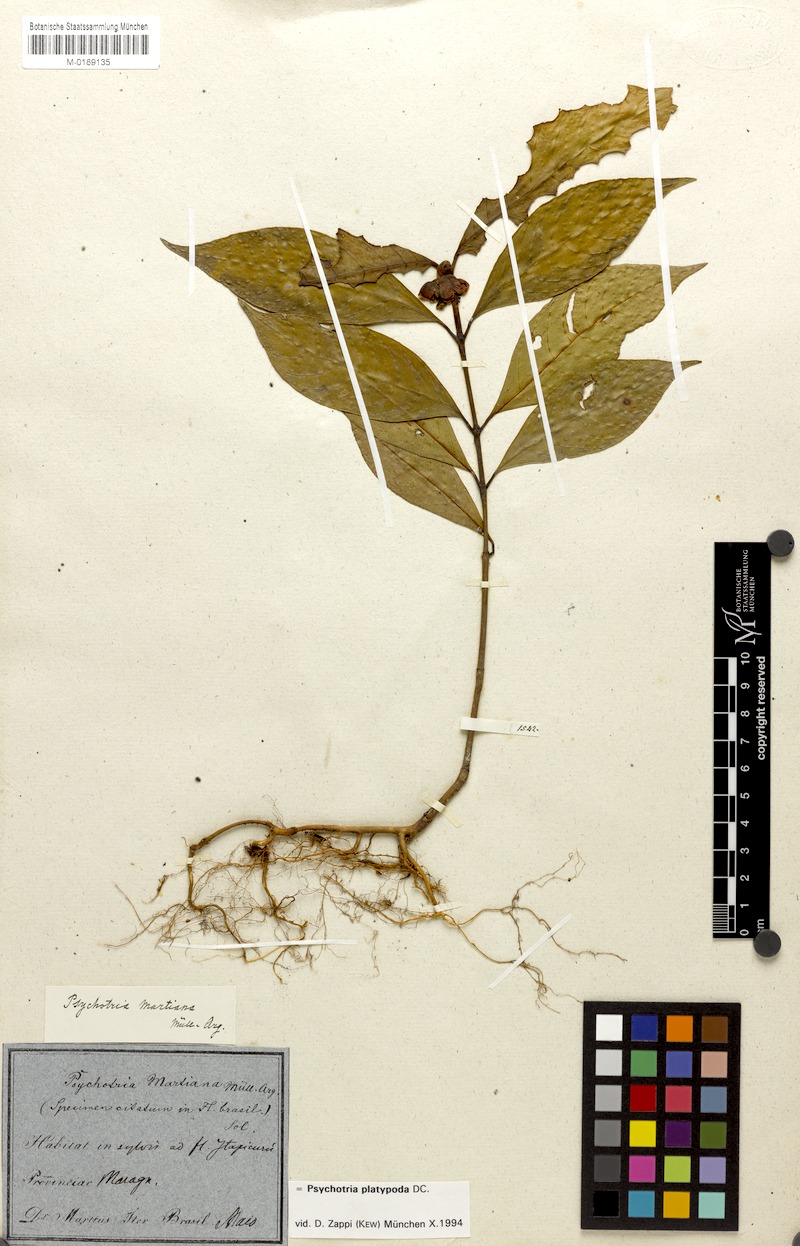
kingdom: Plantae
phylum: Tracheophyta
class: Magnoliopsida
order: Gentianales
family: Rubiaceae
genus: Palicourea
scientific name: Palicourea dichotoma
